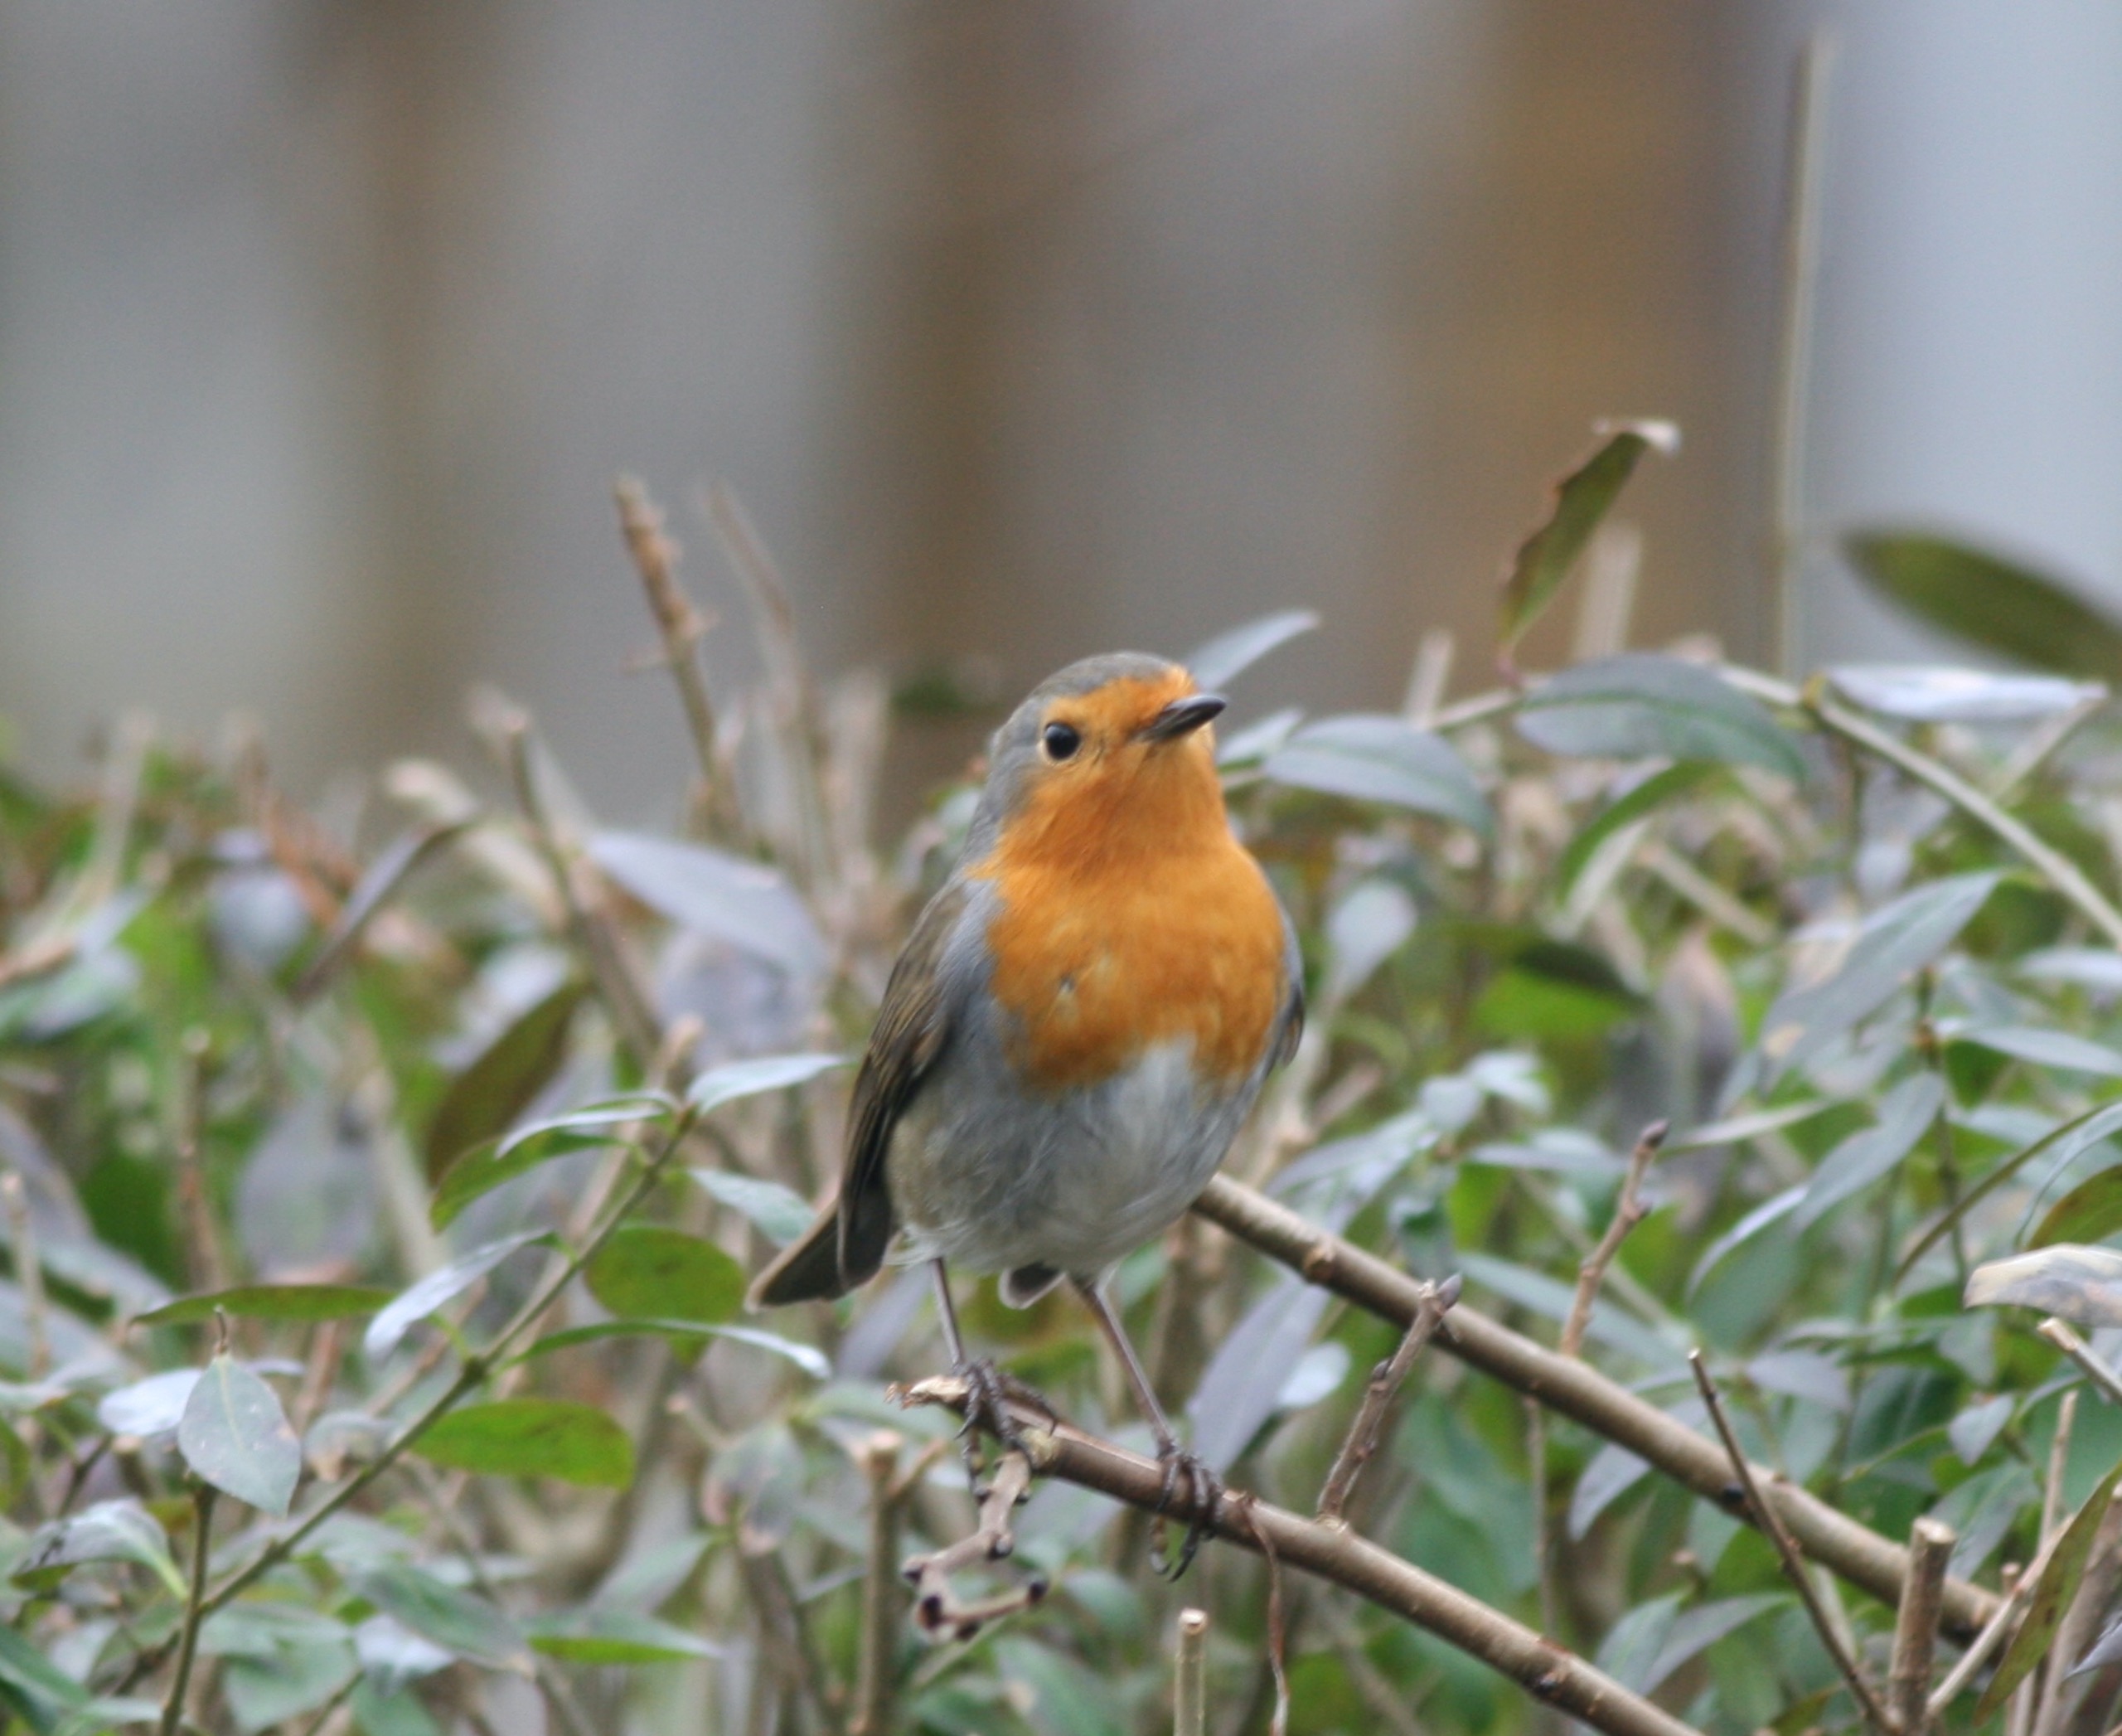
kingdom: Animalia
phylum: Chordata
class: Aves
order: Passeriformes
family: Muscicapidae
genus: Erithacus
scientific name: Erithacus rubecula
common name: Rødhals/rødkælk
